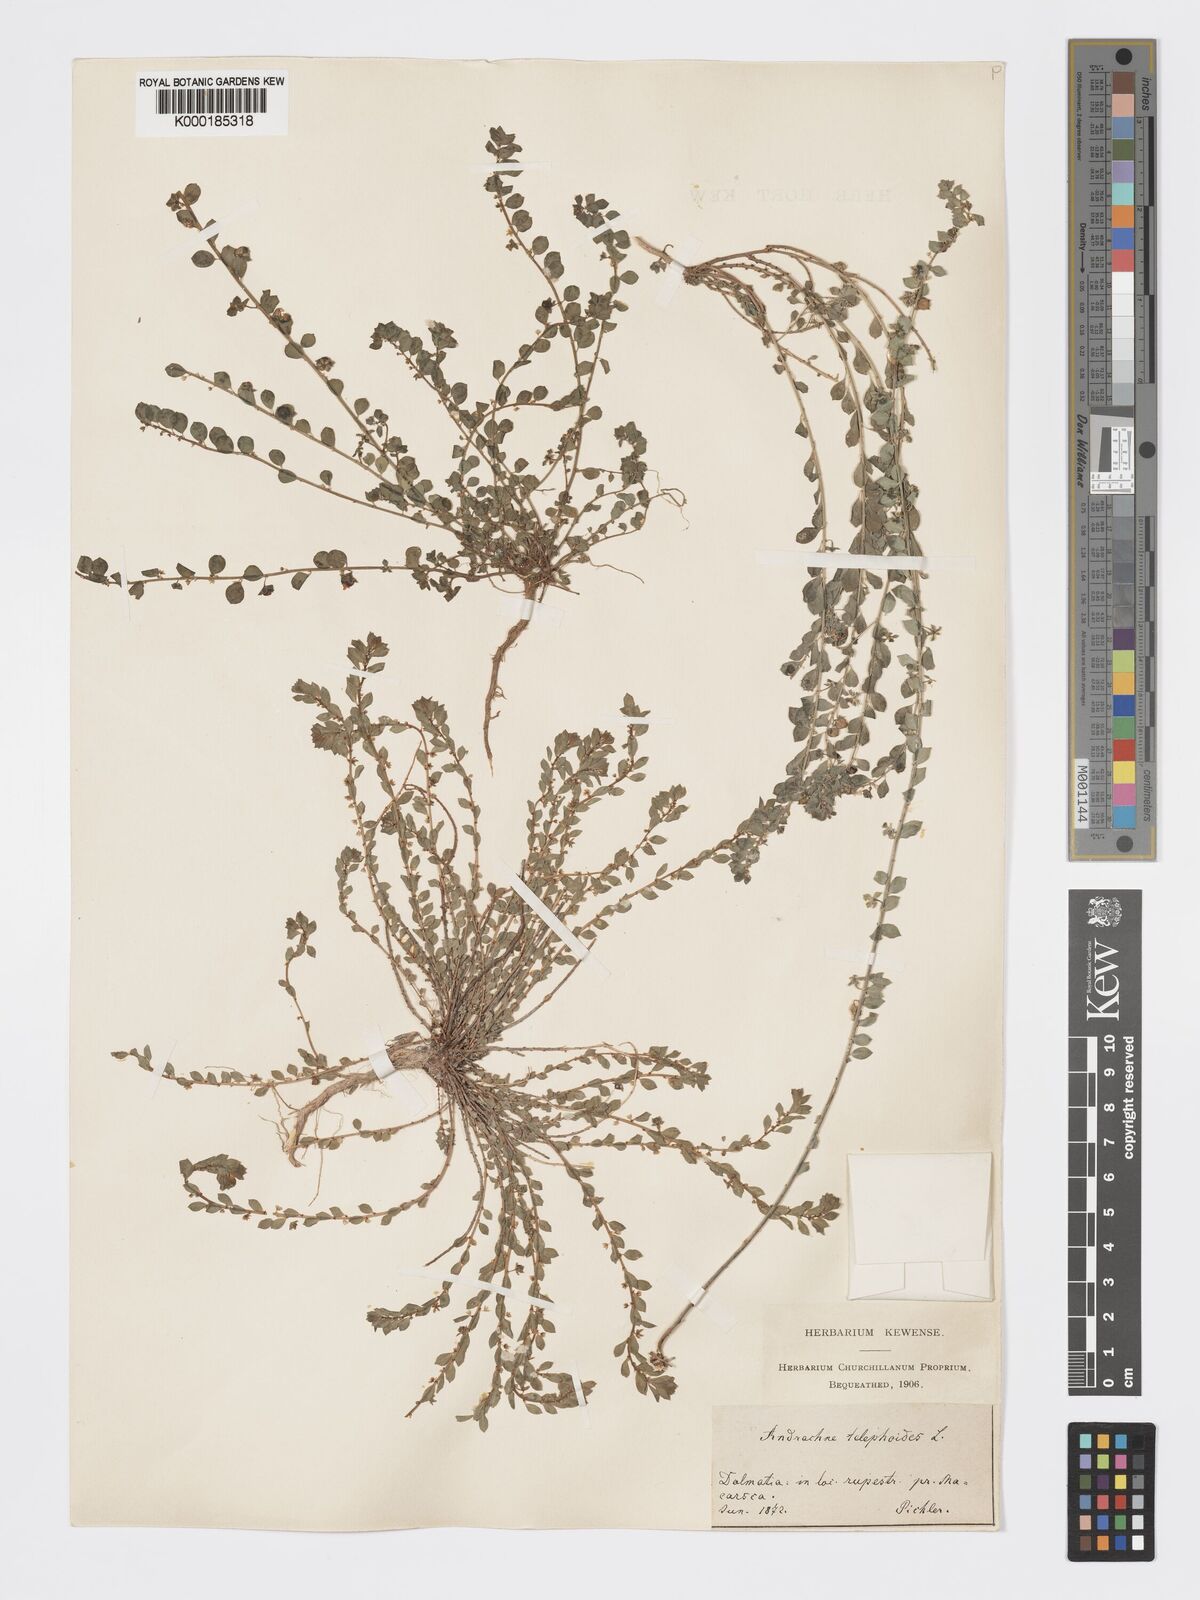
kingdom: Plantae
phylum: Tracheophyta
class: Magnoliopsida
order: Malpighiales
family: Phyllanthaceae
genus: Andrachne
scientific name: Andrachne telephioides
